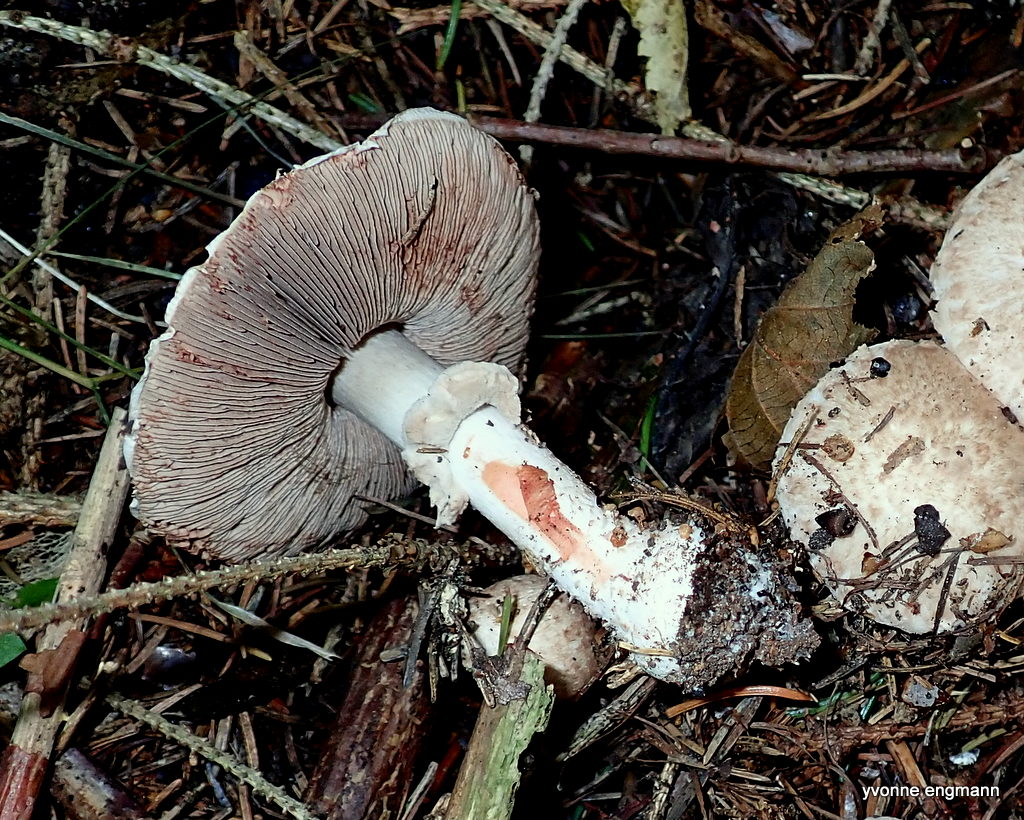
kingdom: Fungi
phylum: Basidiomycota
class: Agaricomycetes
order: Agaricales
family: Agaricaceae
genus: Agaricus
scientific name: Agaricus sylvaticus
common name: lille blod-champignon
